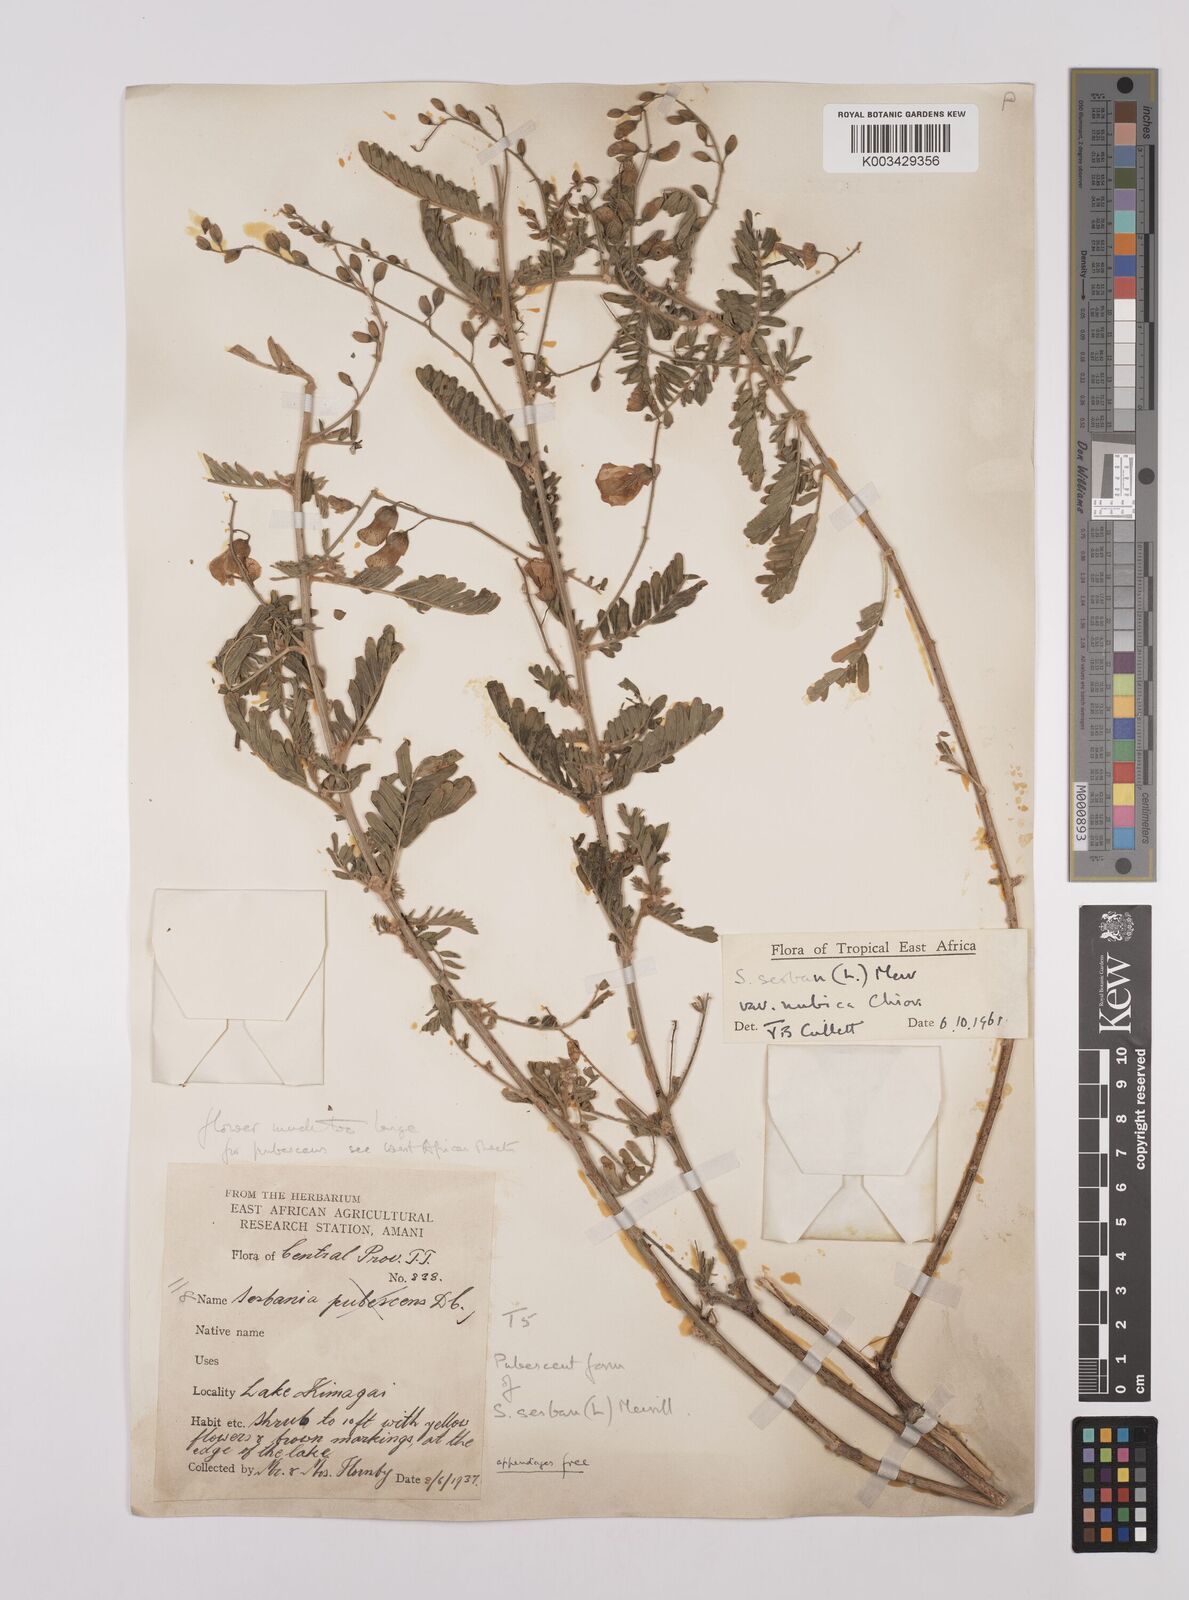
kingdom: Plantae
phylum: Tracheophyta
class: Magnoliopsida
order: Fabales
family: Fabaceae
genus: Sesbania
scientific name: Sesbania sesban
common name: Egyptian sesban
